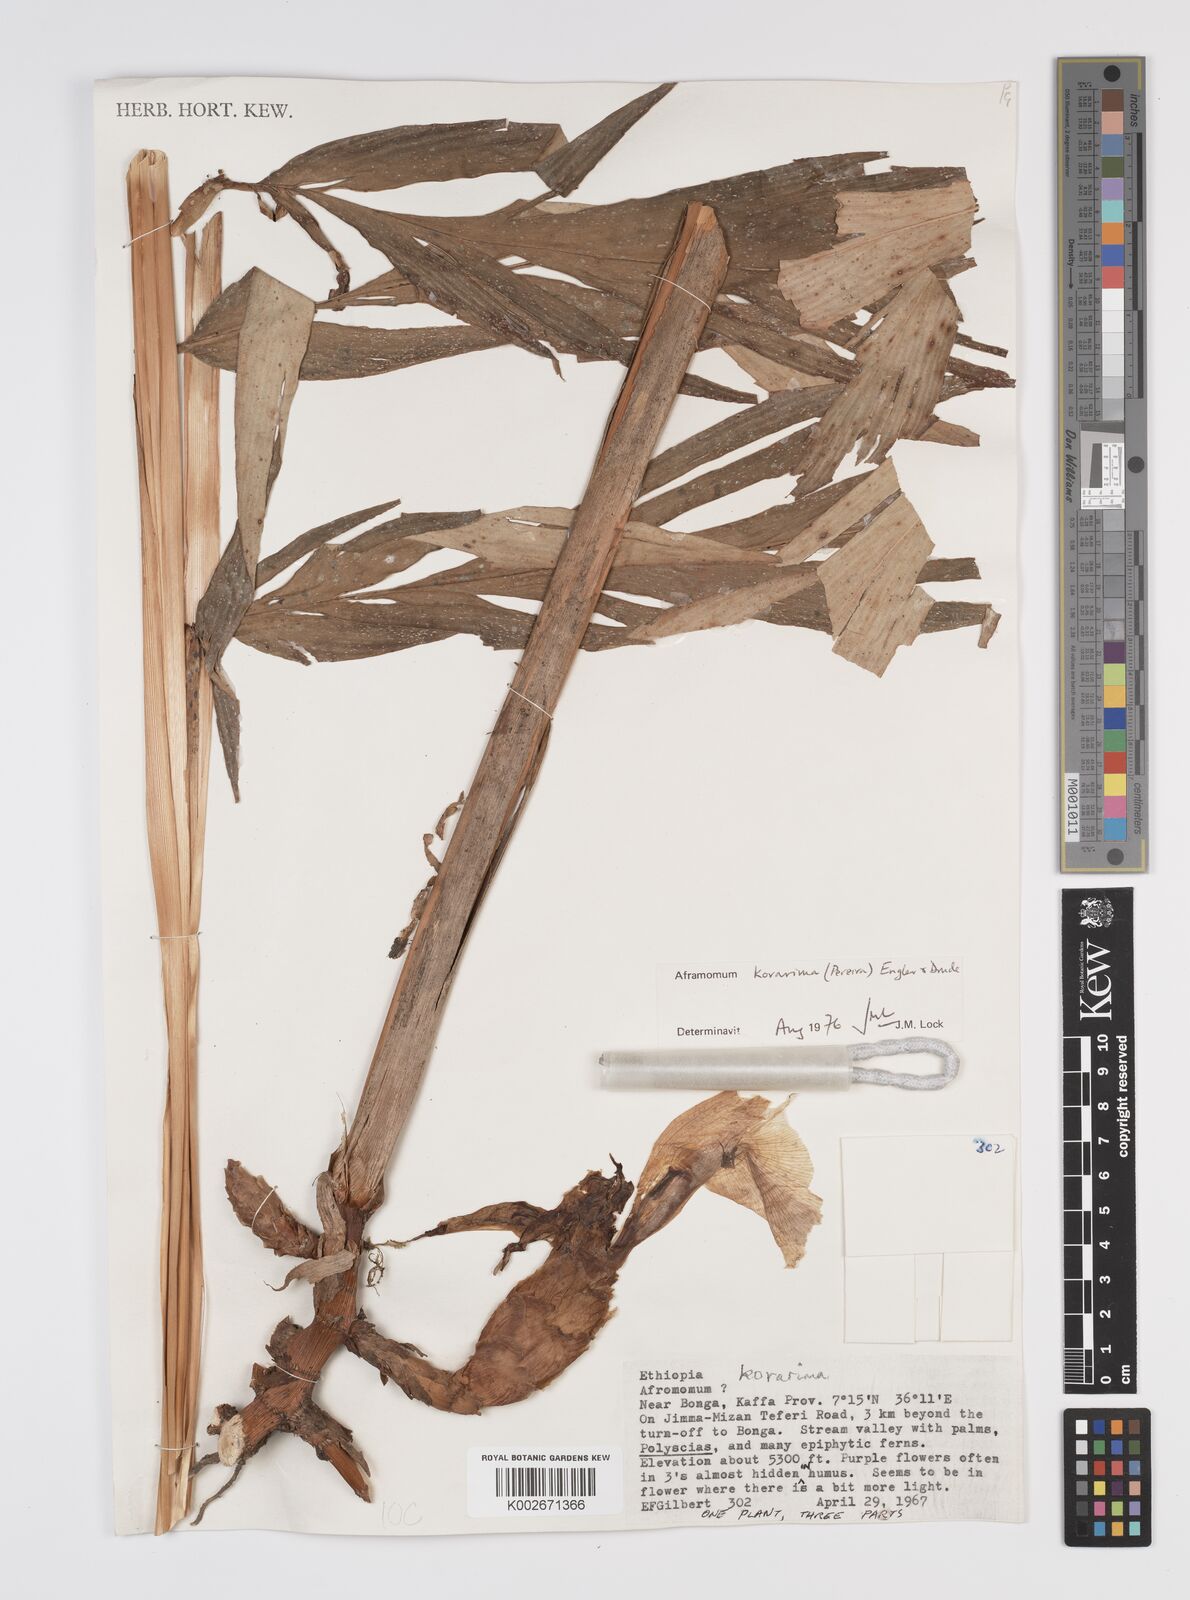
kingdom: Plantae
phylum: Tracheophyta
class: Liliopsida
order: Zingiberales
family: Zingiberaceae
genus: Aframomum
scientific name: Aframomum corrorima
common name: Ethiopian cardamom
